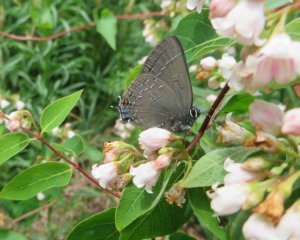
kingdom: Animalia
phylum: Arthropoda
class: Insecta
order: Lepidoptera
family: Lycaenidae
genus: Satyrium
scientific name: Satyrium calanus
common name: Banded Hairstreak
